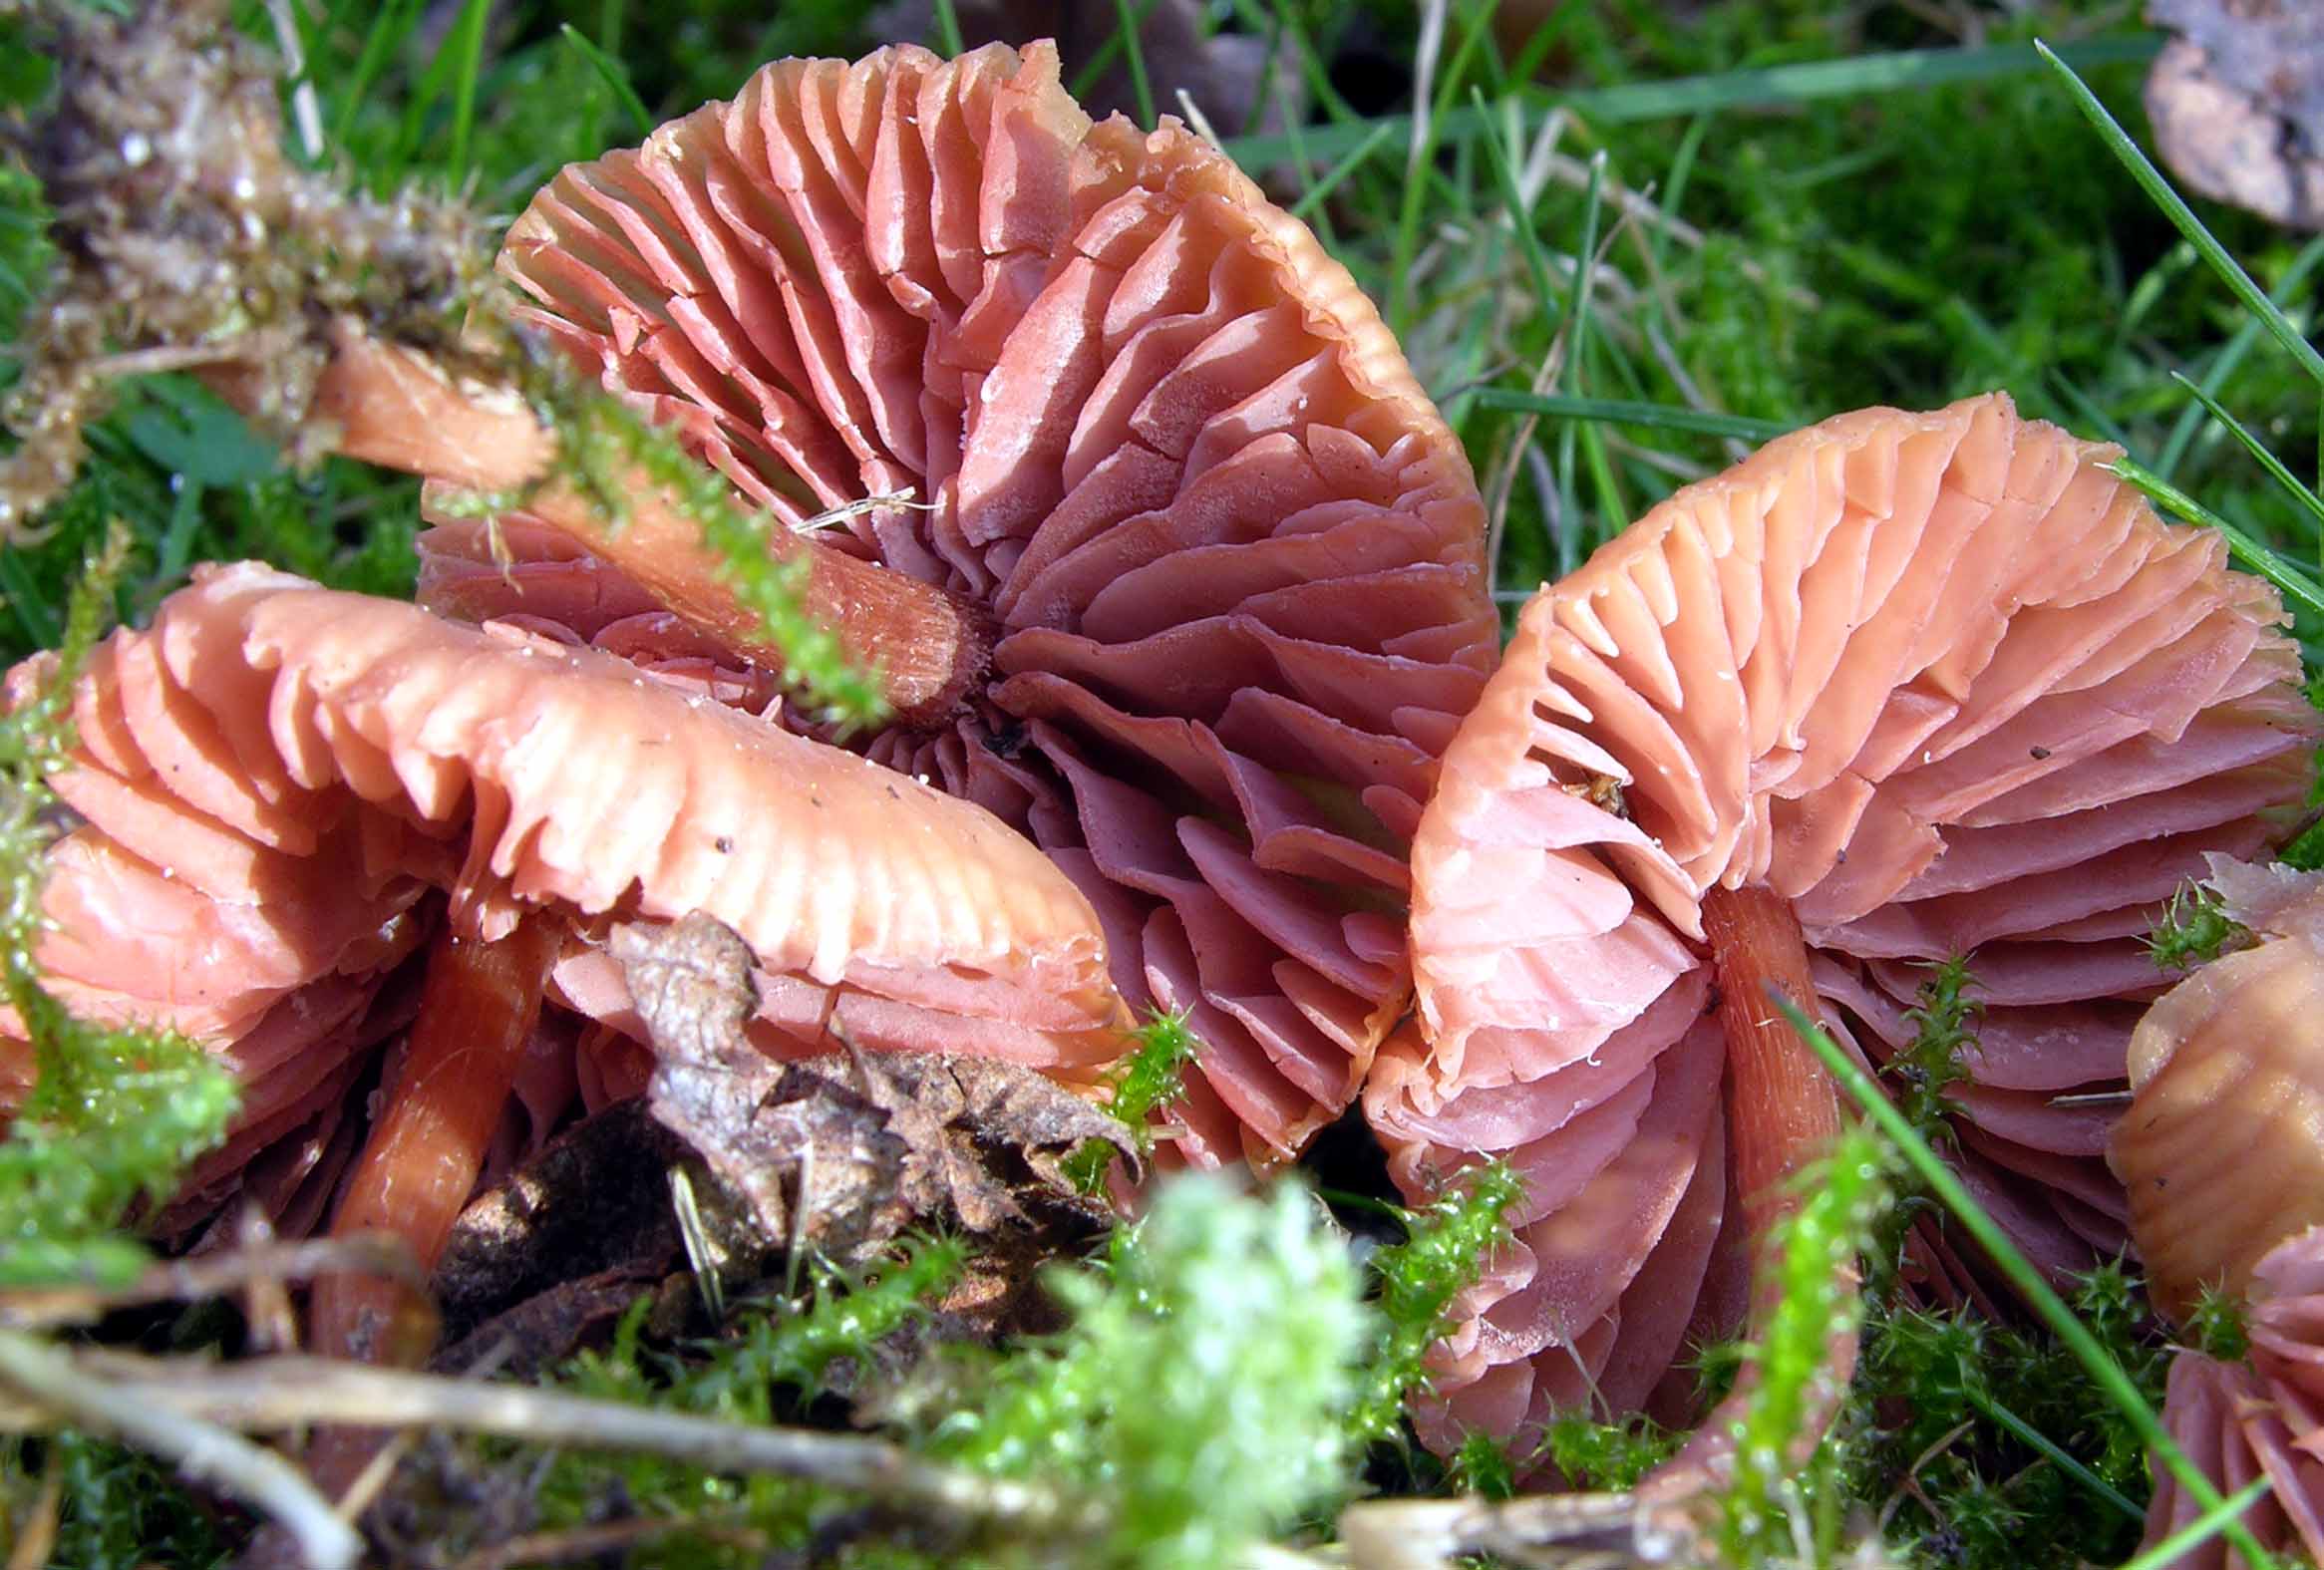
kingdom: Fungi
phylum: Basidiomycota
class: Agaricomycetes
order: Agaricales
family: Hydnangiaceae
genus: Laccaria
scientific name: Laccaria laccata
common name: rød ametysthat
